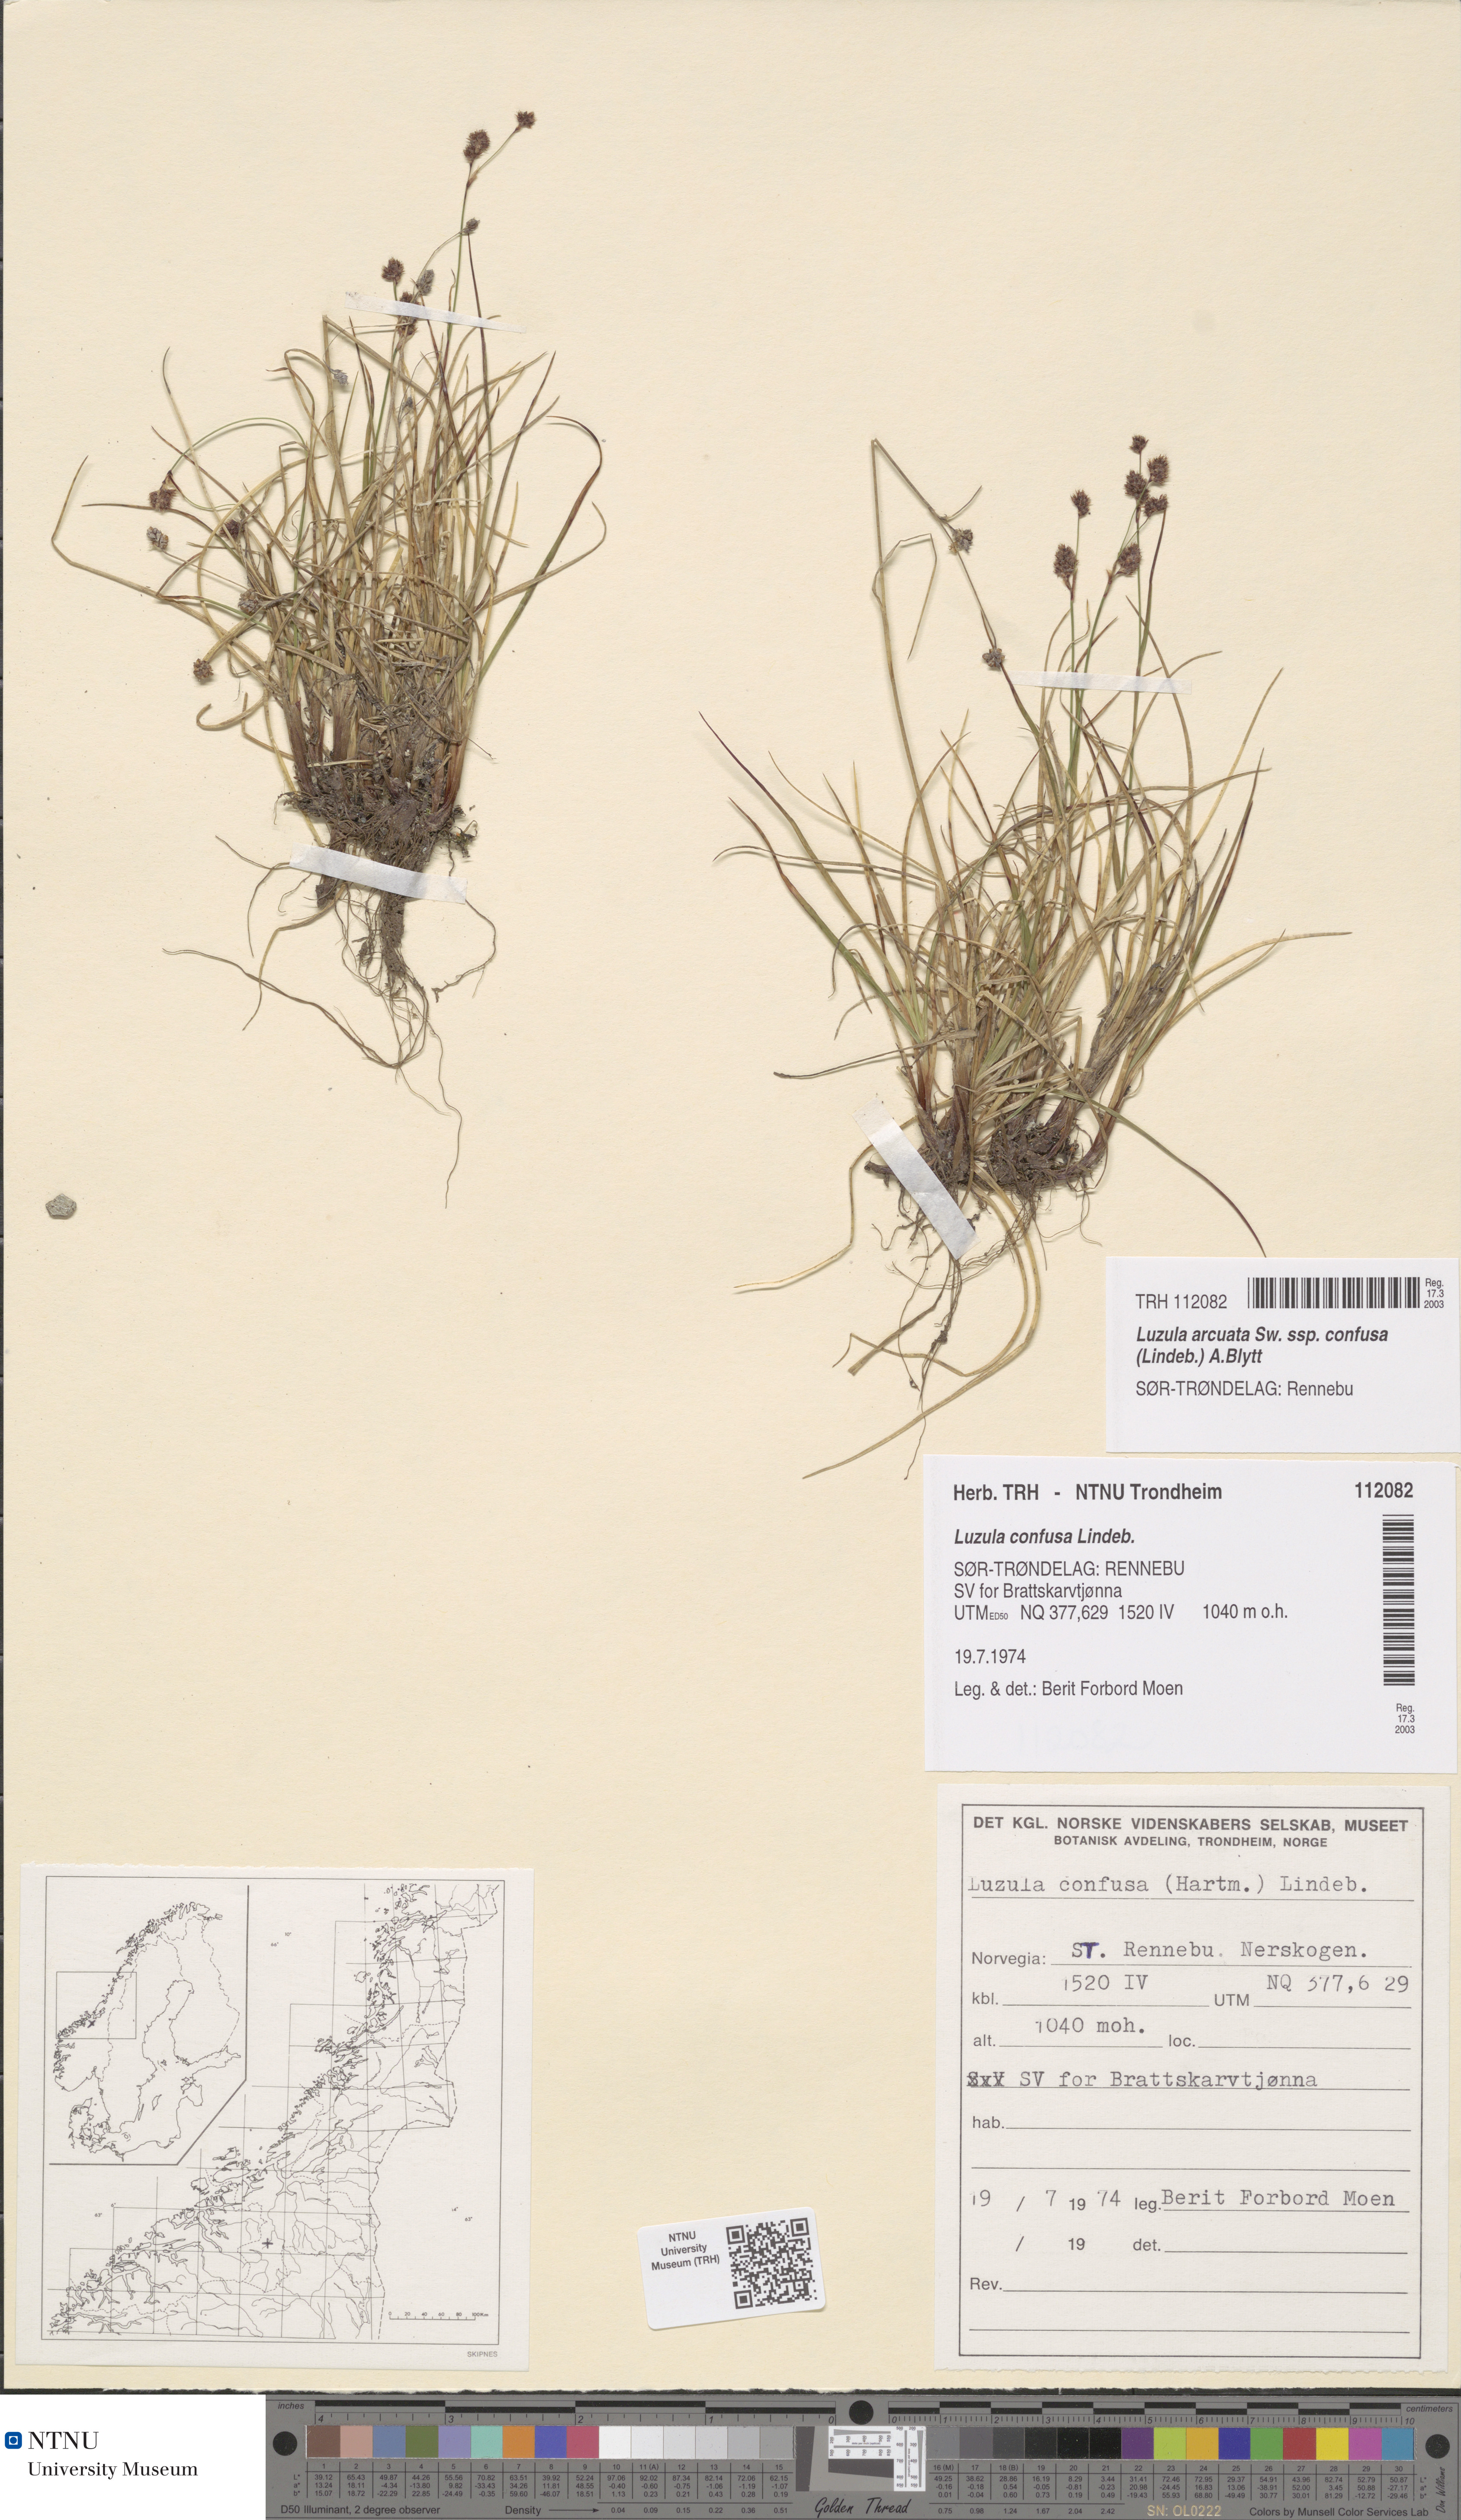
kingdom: Plantae
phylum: Tracheophyta
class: Liliopsida
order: Poales
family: Juncaceae
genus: Luzula
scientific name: Luzula confusa
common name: Northern wood rush
